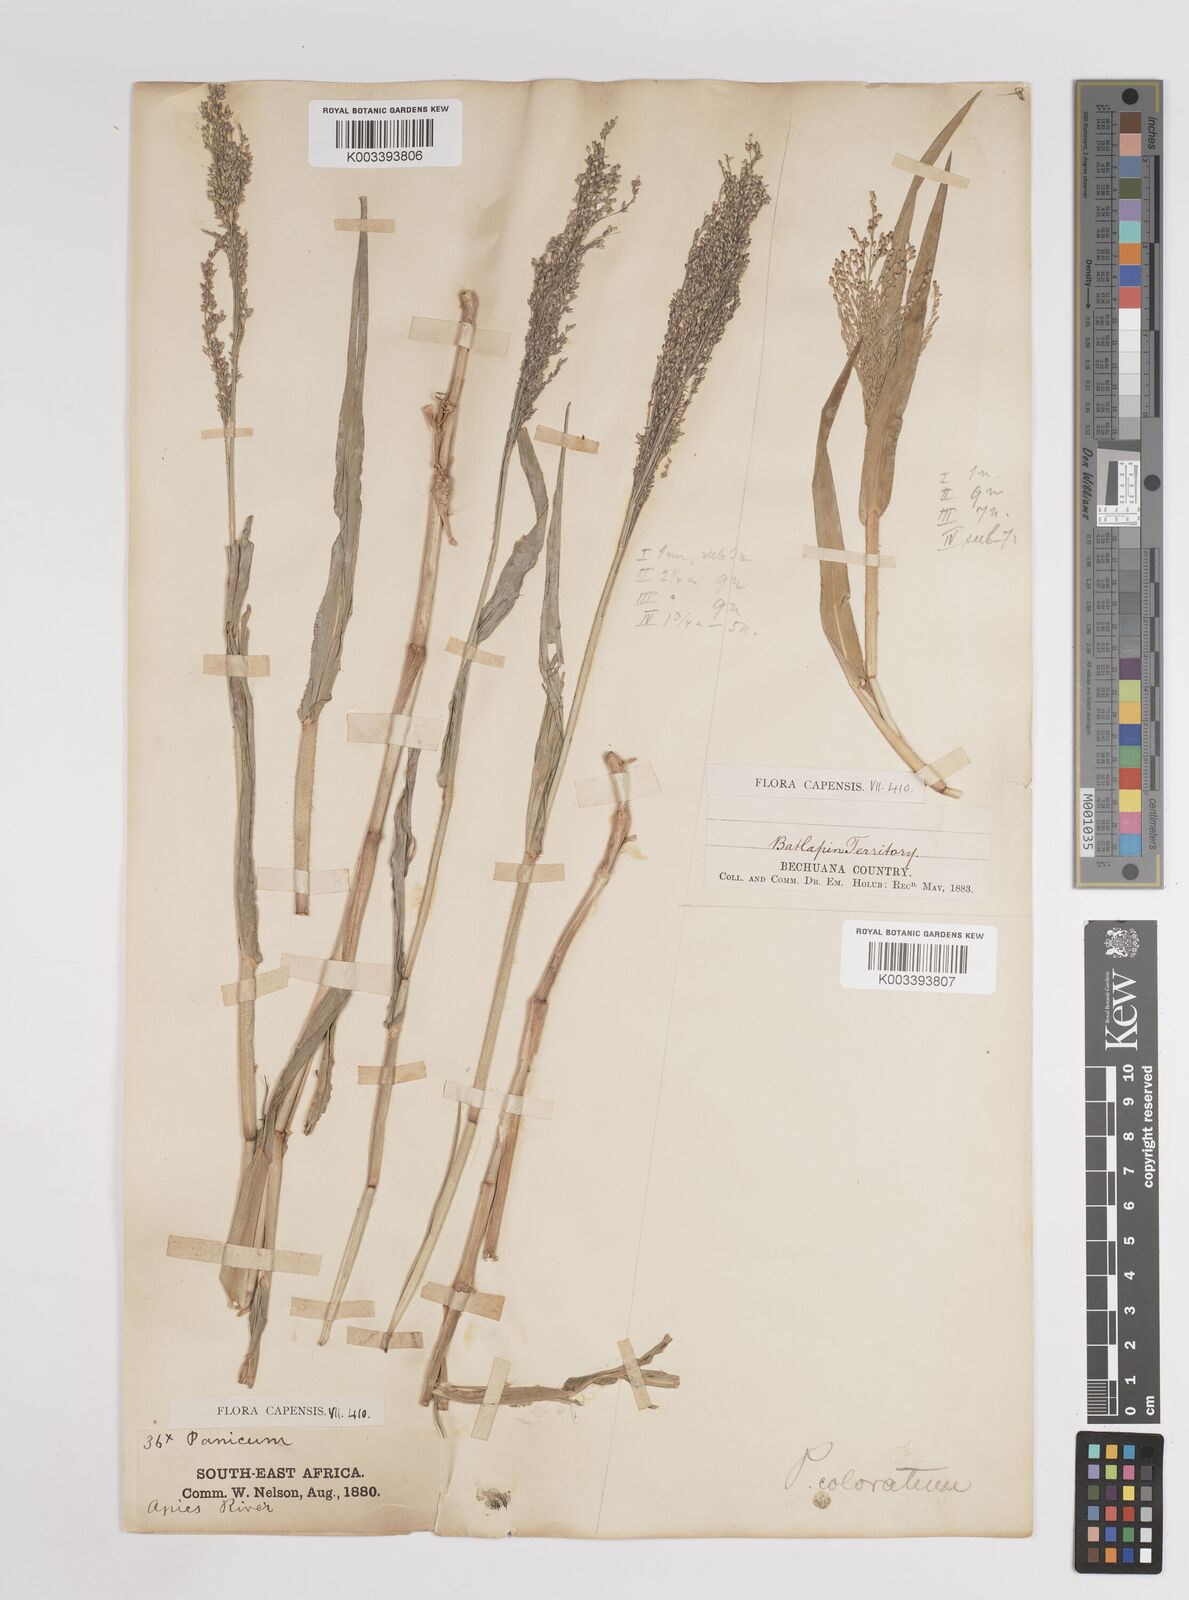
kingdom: Plantae
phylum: Tracheophyta
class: Liliopsida
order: Poales
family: Poaceae
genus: Panicum
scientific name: Panicum novemnerve
